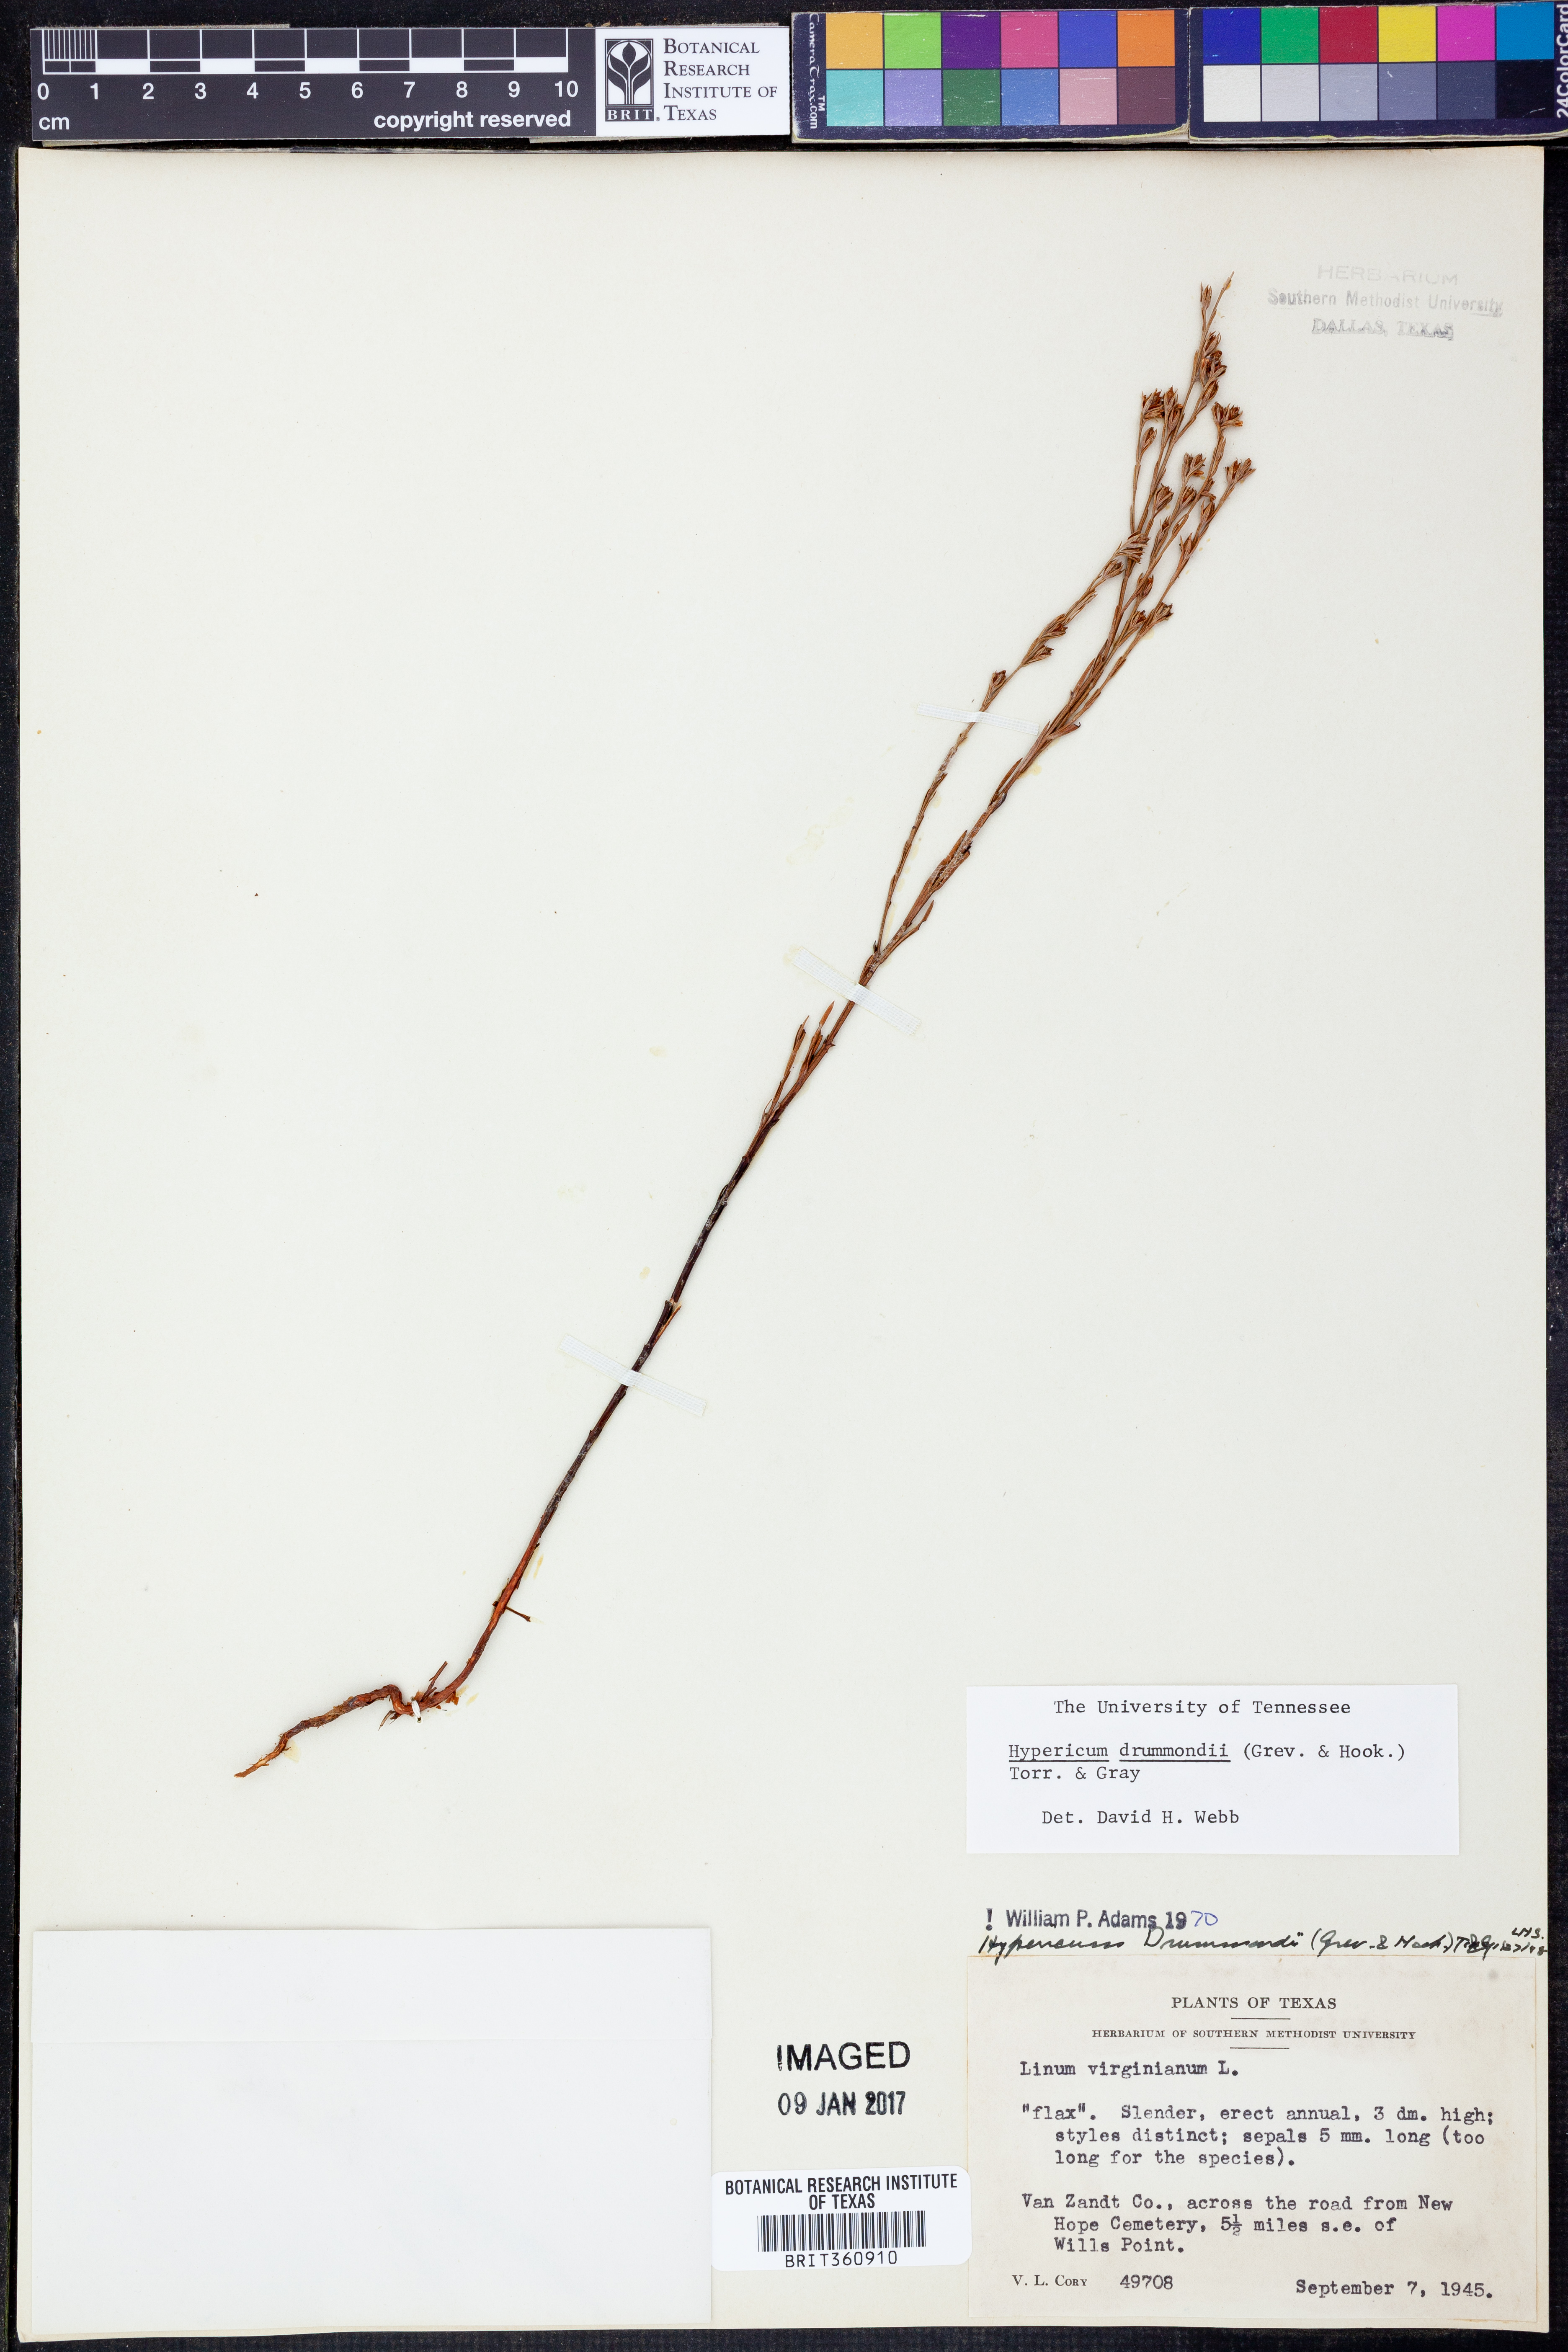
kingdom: Plantae
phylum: Tracheophyta
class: Magnoliopsida
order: Malpighiales
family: Hypericaceae
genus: Hypericum
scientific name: Hypericum drummondii
